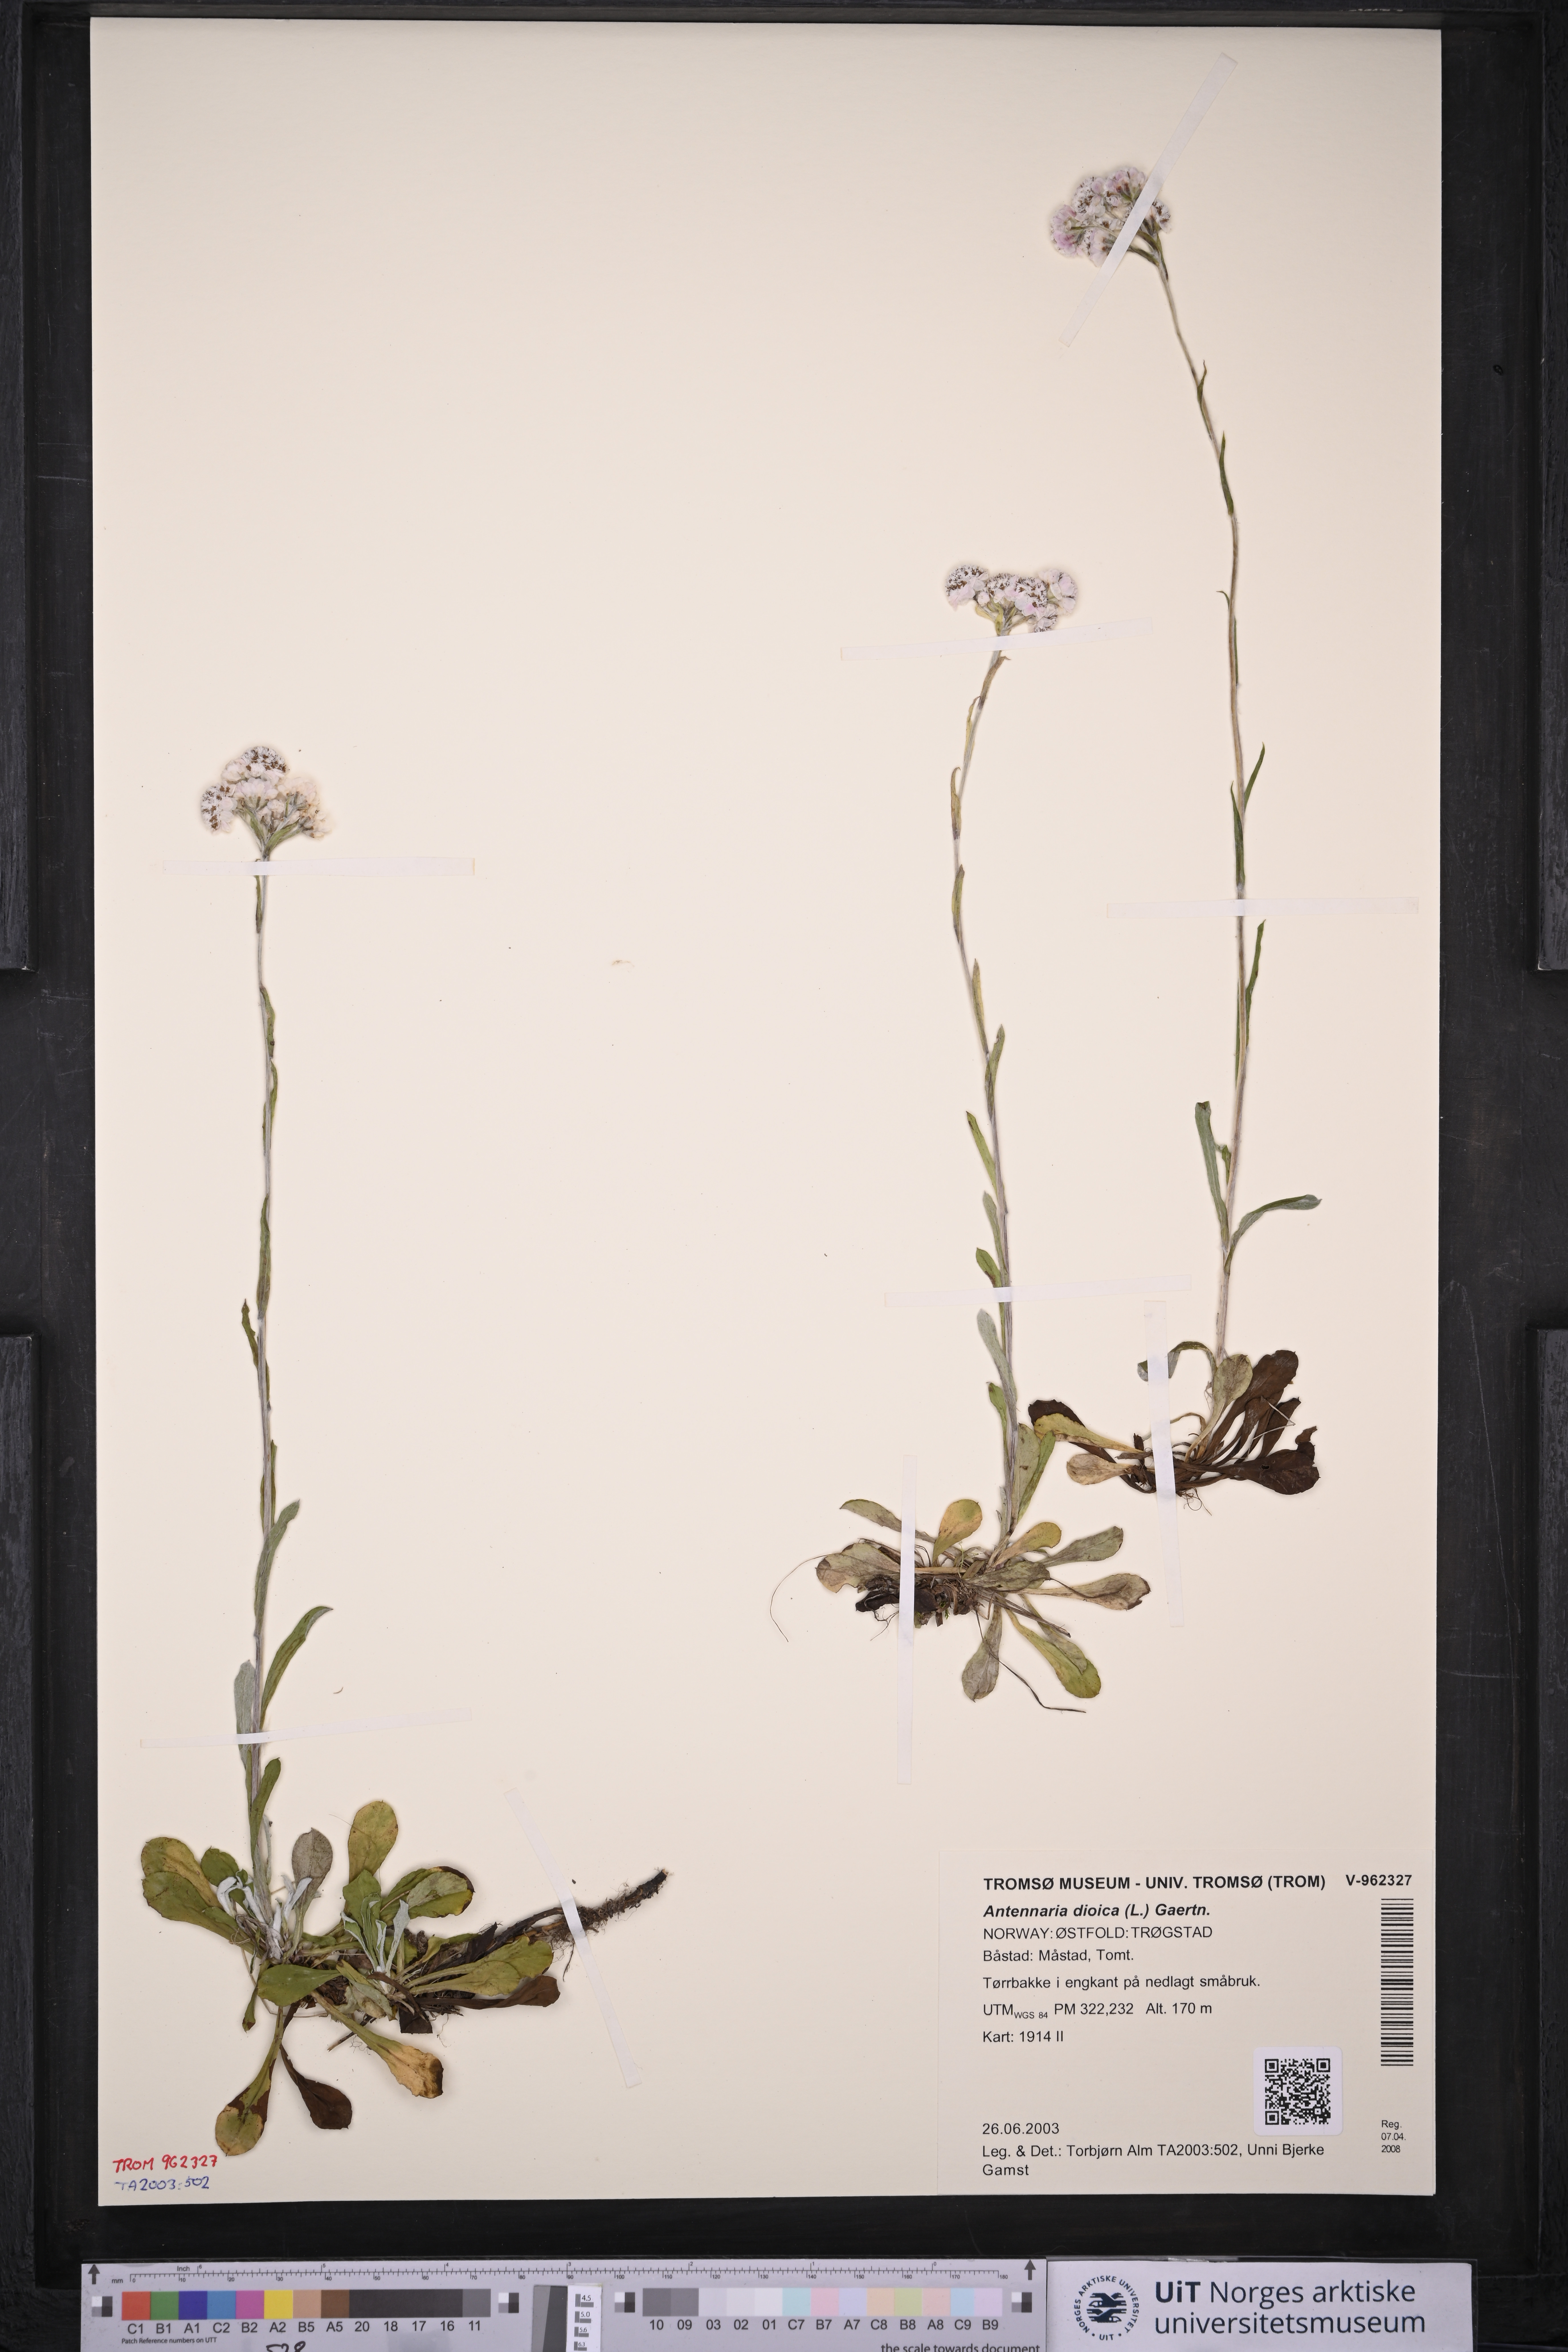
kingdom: Plantae
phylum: Tracheophyta
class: Magnoliopsida
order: Asterales
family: Asteraceae
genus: Antennaria
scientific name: Antennaria dioica
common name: Mountain everlasting
